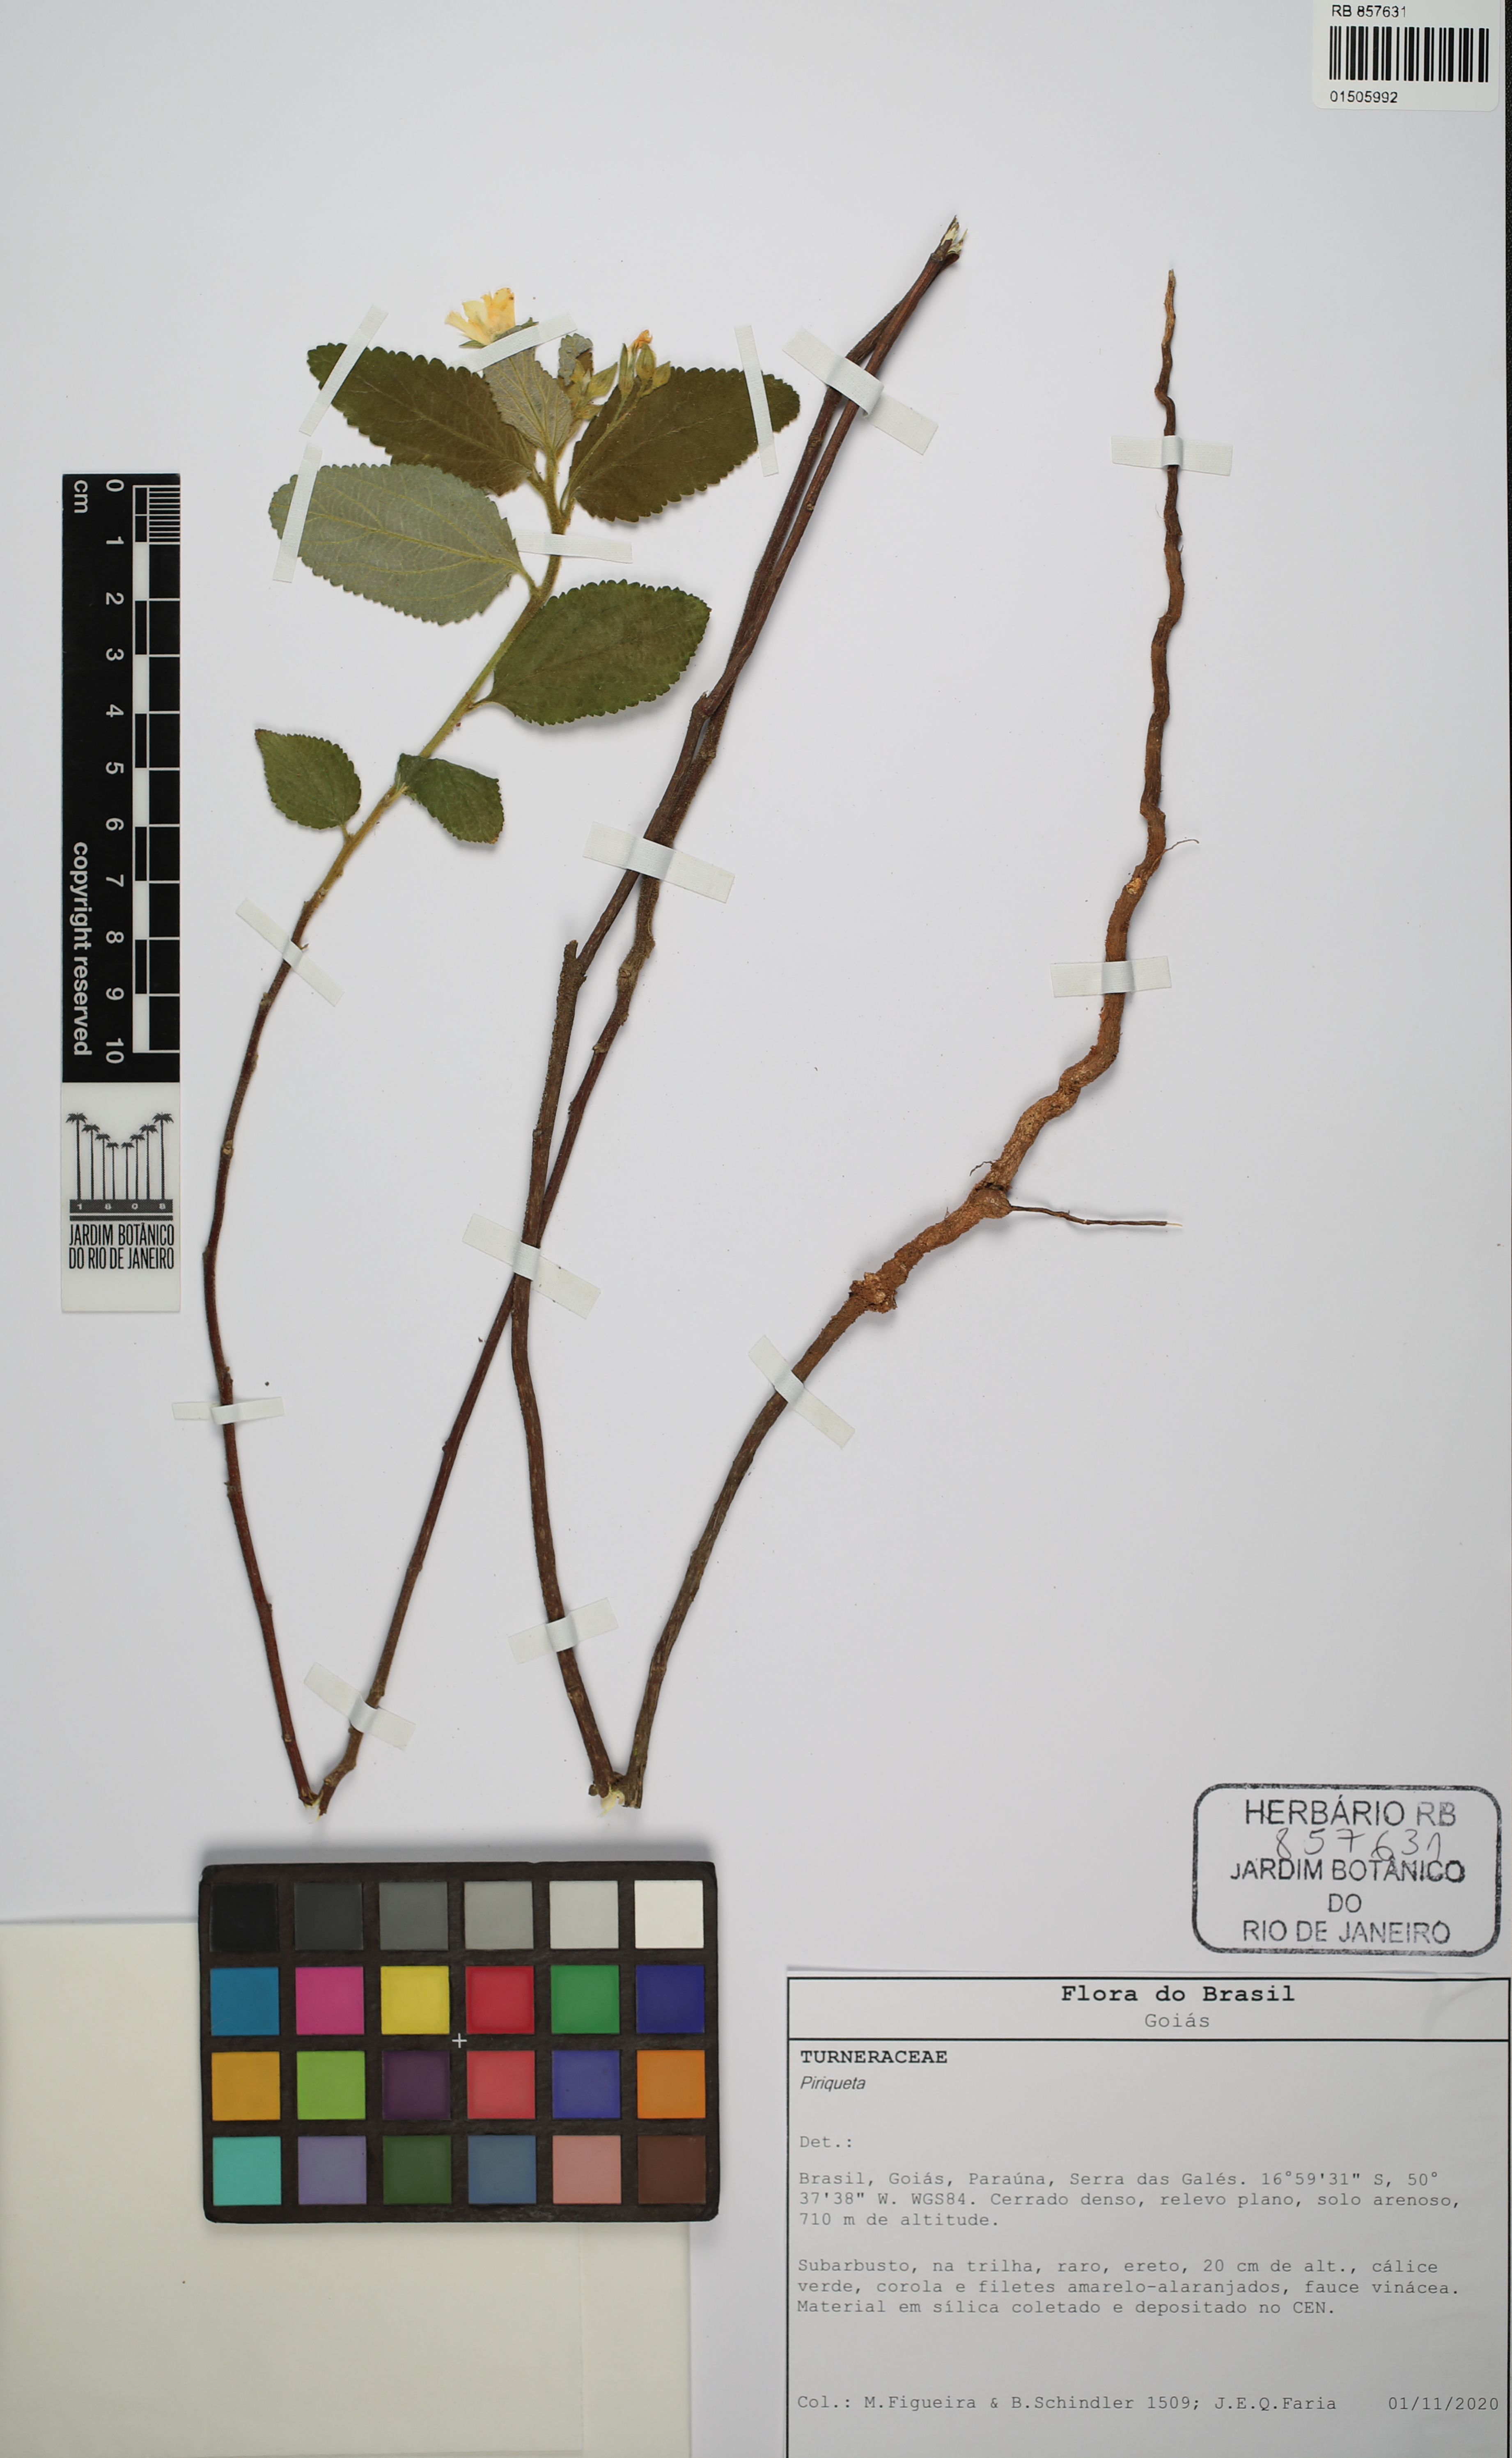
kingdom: Plantae
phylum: Tracheophyta
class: Magnoliopsida
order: Malpighiales
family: Turneraceae
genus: Piriqueta
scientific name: Piriqueta
